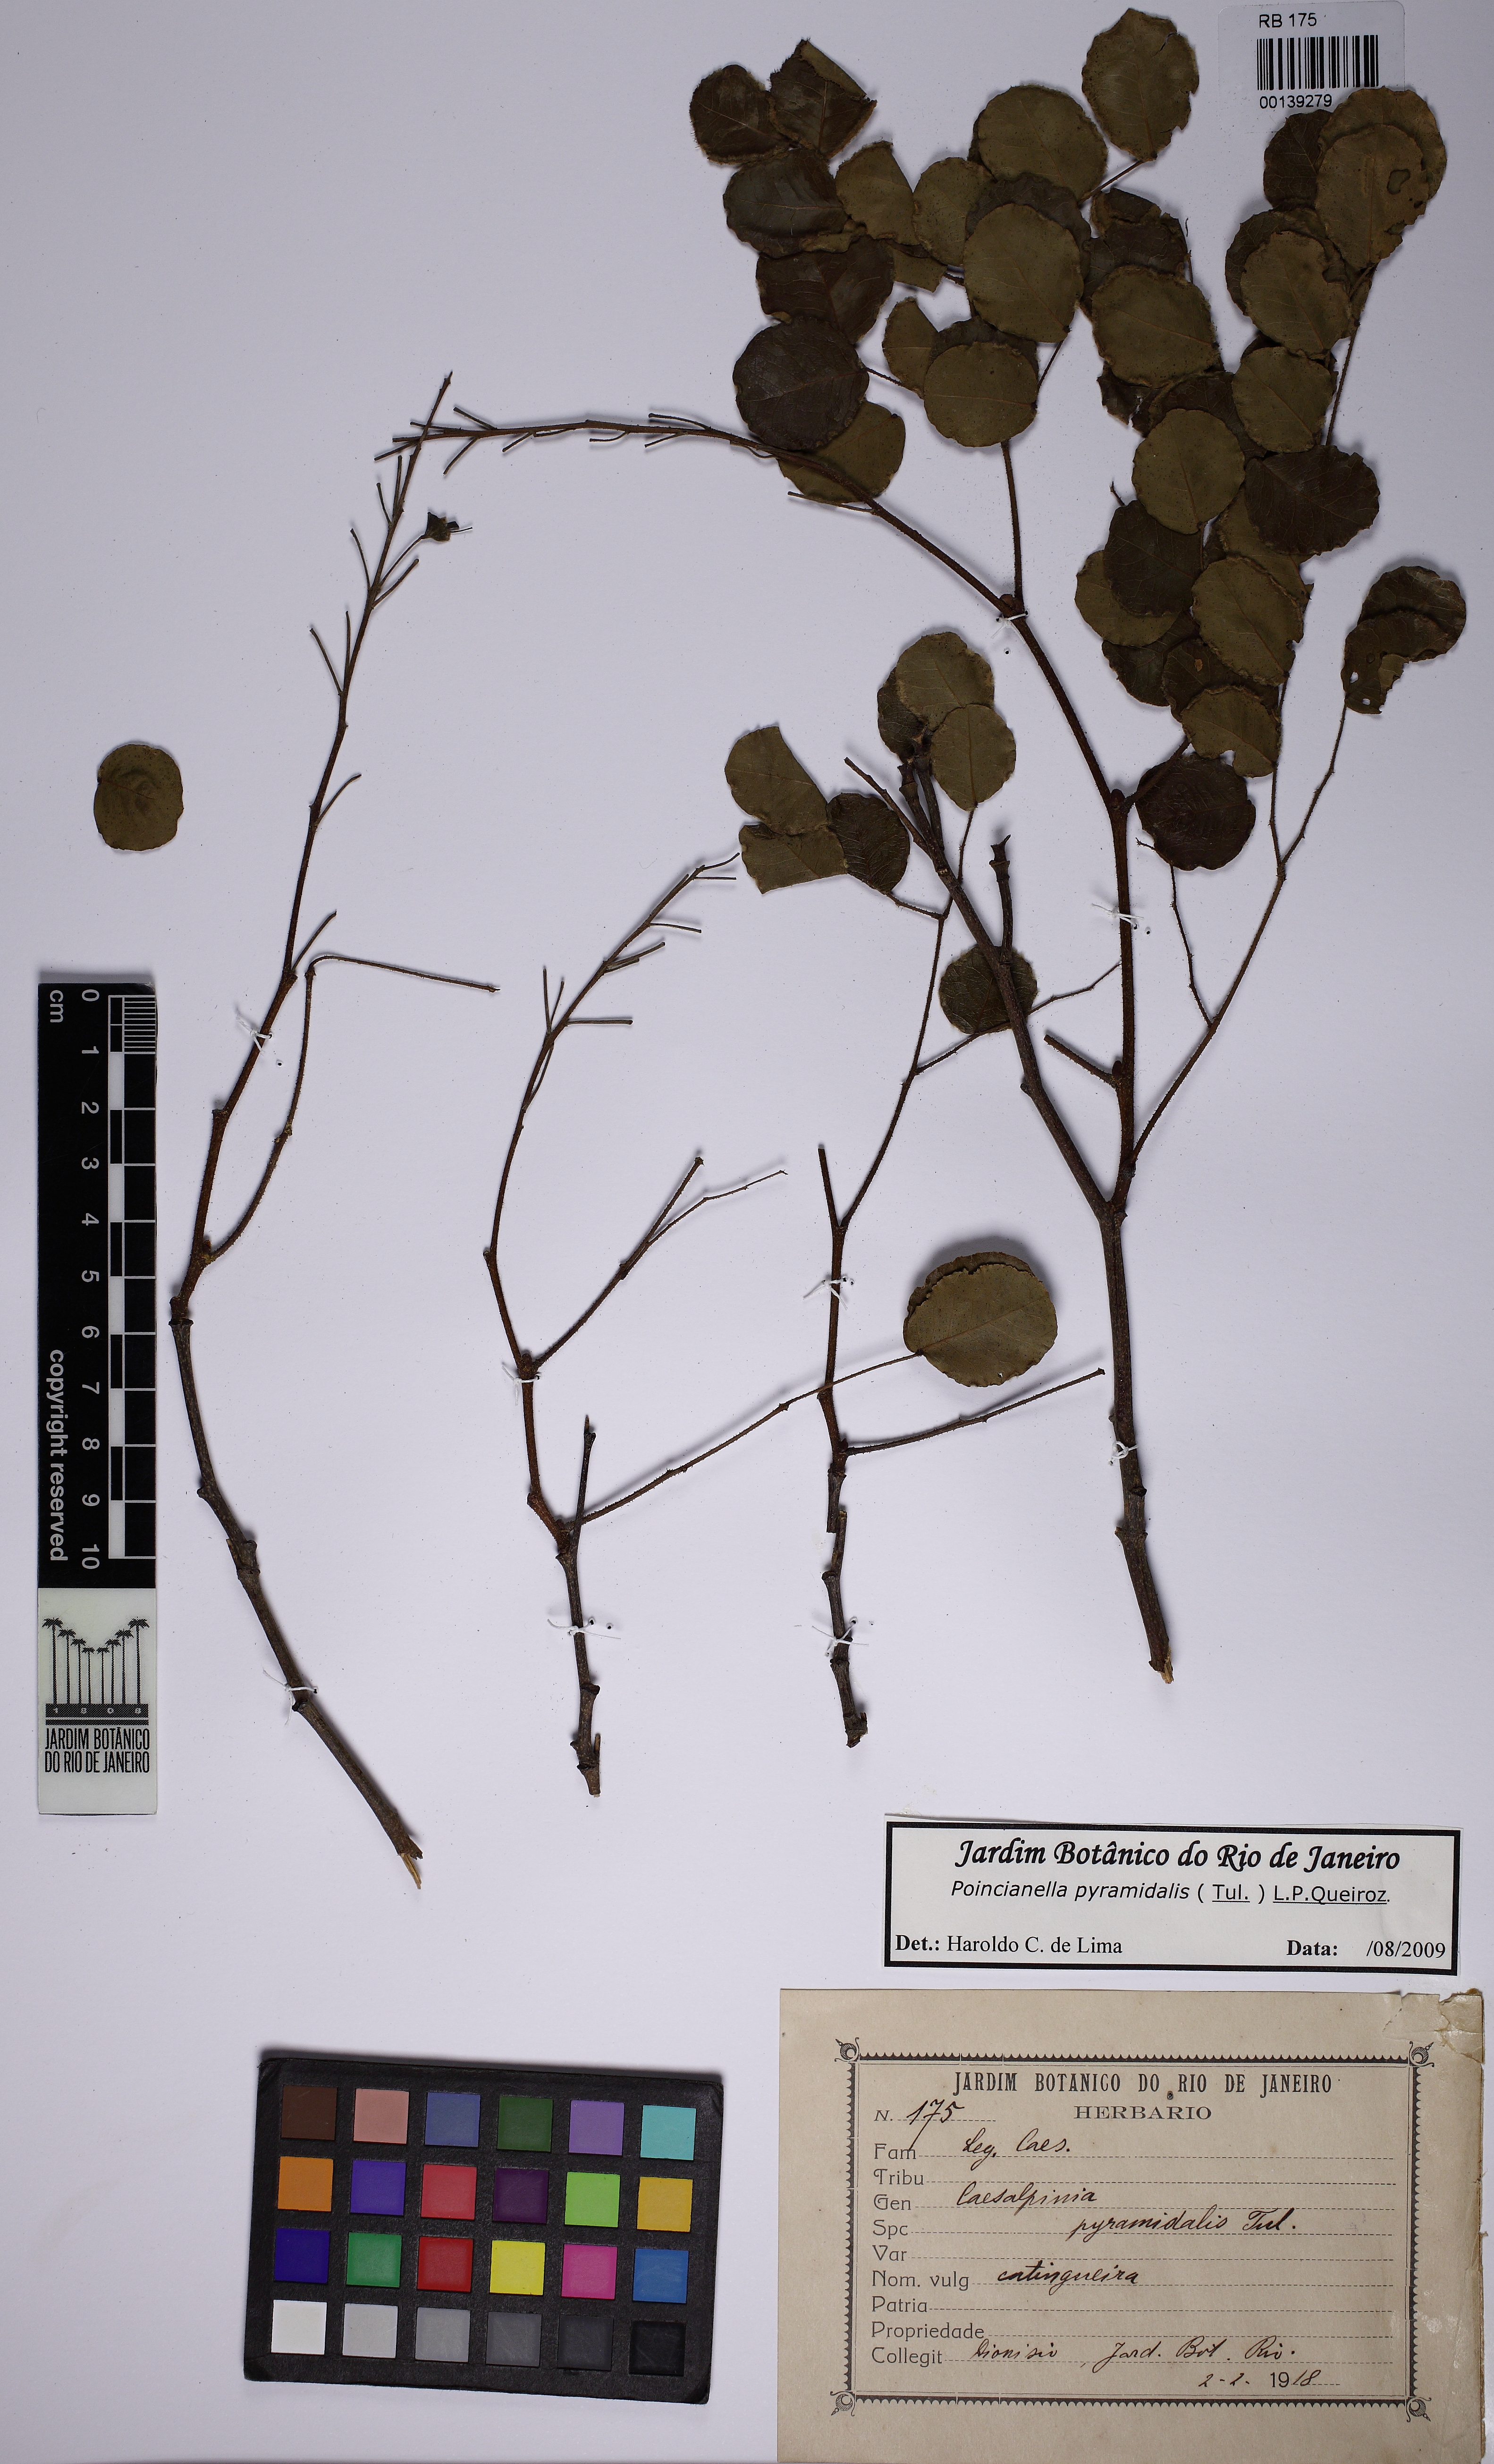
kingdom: Plantae
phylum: Tracheophyta
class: Magnoliopsida
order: Fabales
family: Fabaceae
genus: Cenostigma
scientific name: Cenostigma pyramidale
